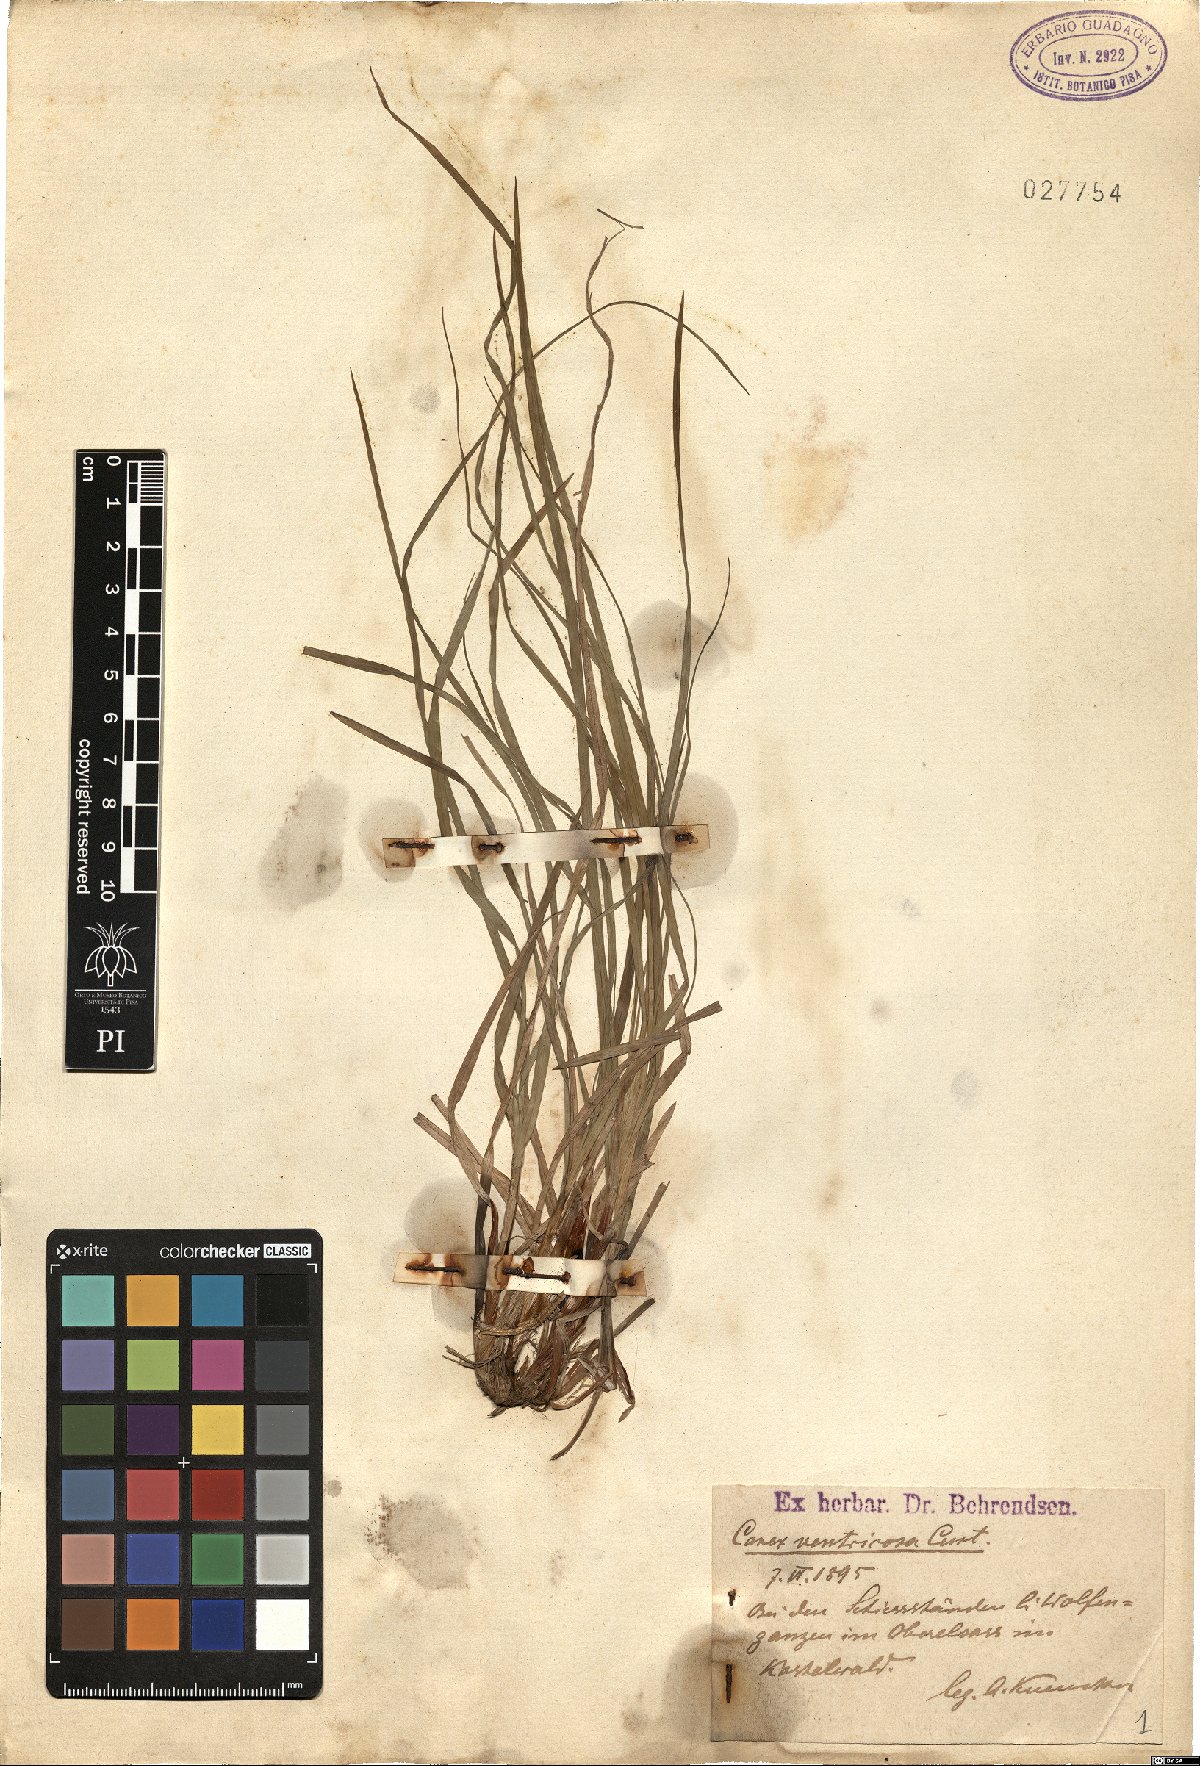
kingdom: Plantae
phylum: Tracheophyta
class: Liliopsida
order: Poales
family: Cyperaceae
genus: Carex
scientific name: Carex depauperata
